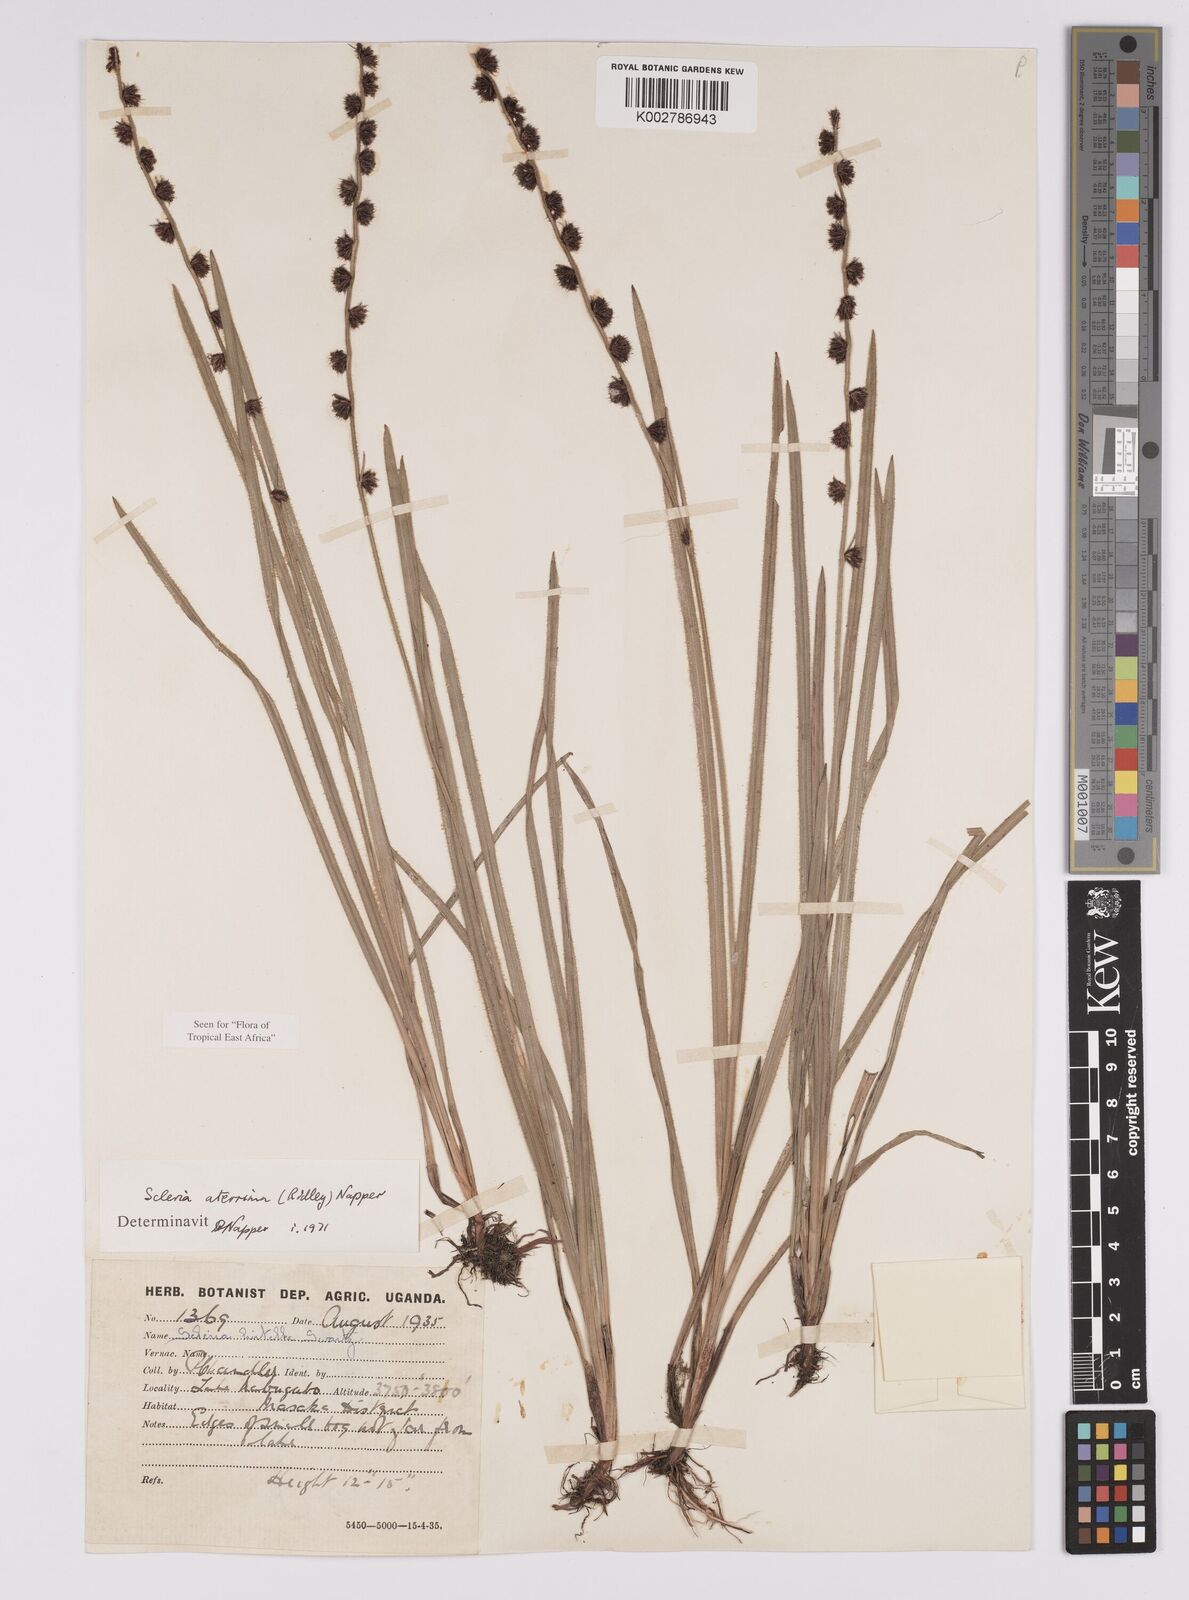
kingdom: Plantae
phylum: Tracheophyta
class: Liliopsida
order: Poales
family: Cyperaceae
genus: Scleria
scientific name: Scleria catophylla
